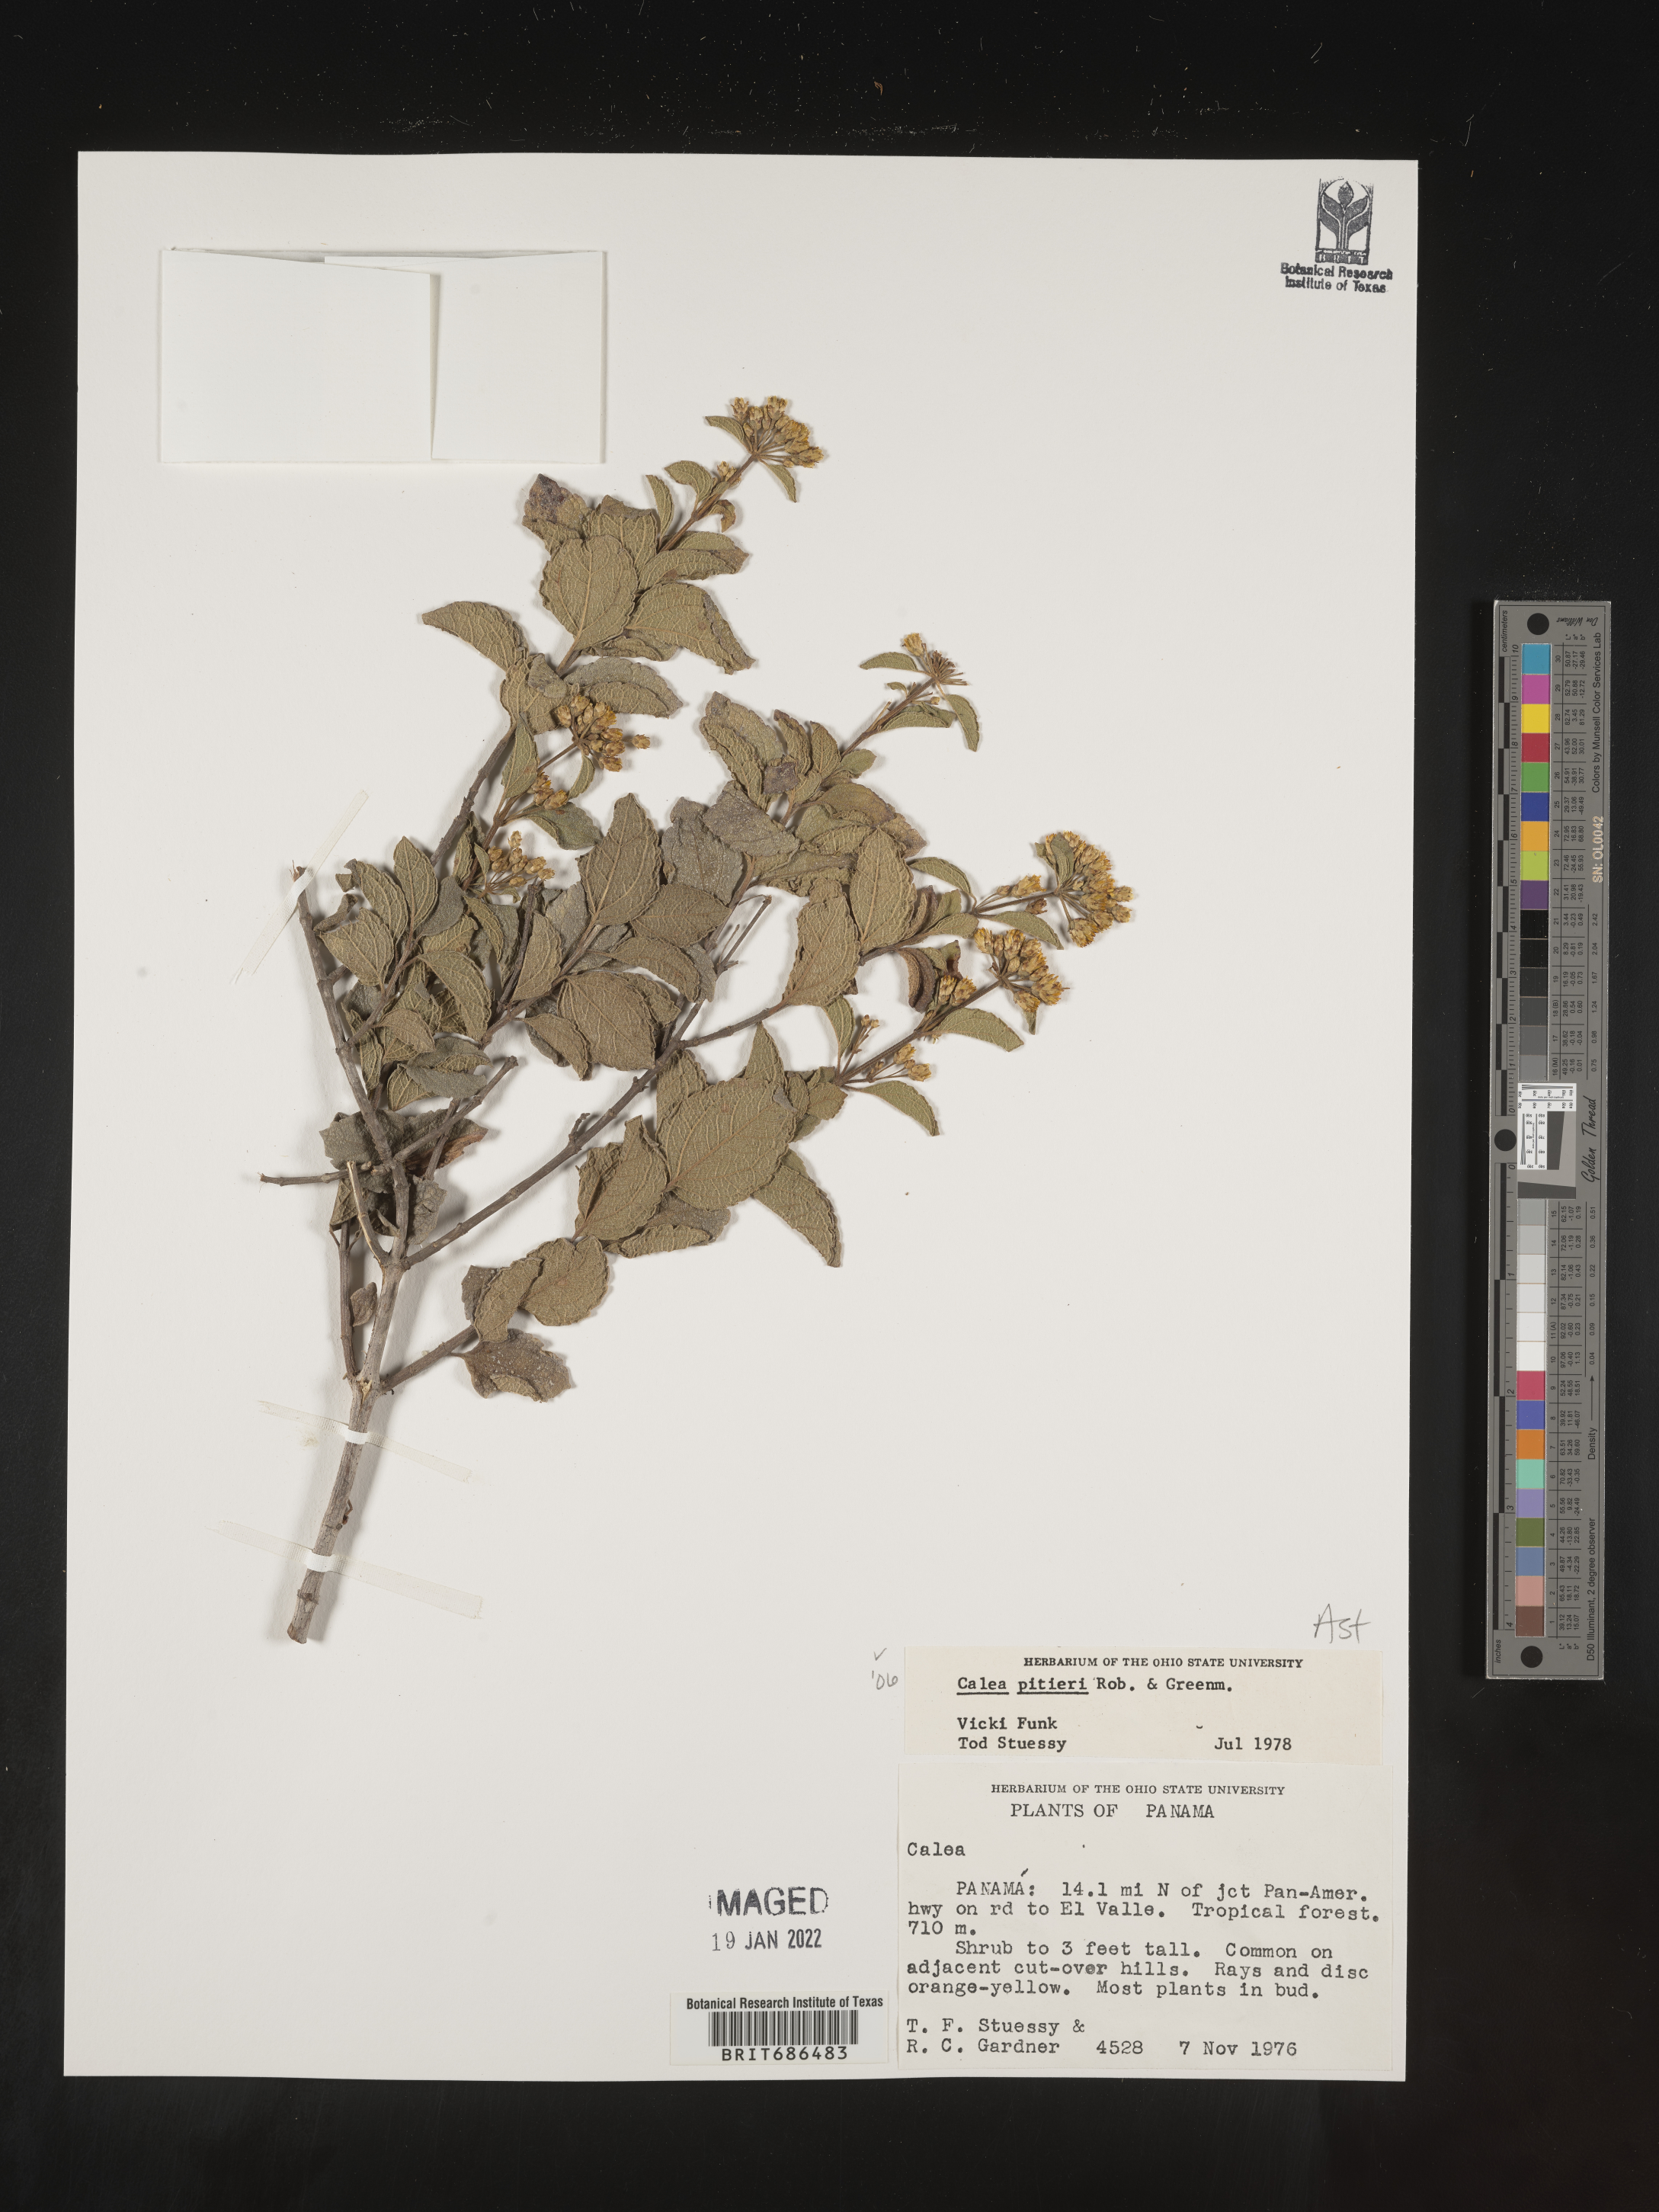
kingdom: Plantae
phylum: Tracheophyta
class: Magnoliopsida
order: Asterales
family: Asteraceae
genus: Calea
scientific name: Calea prunifolia
